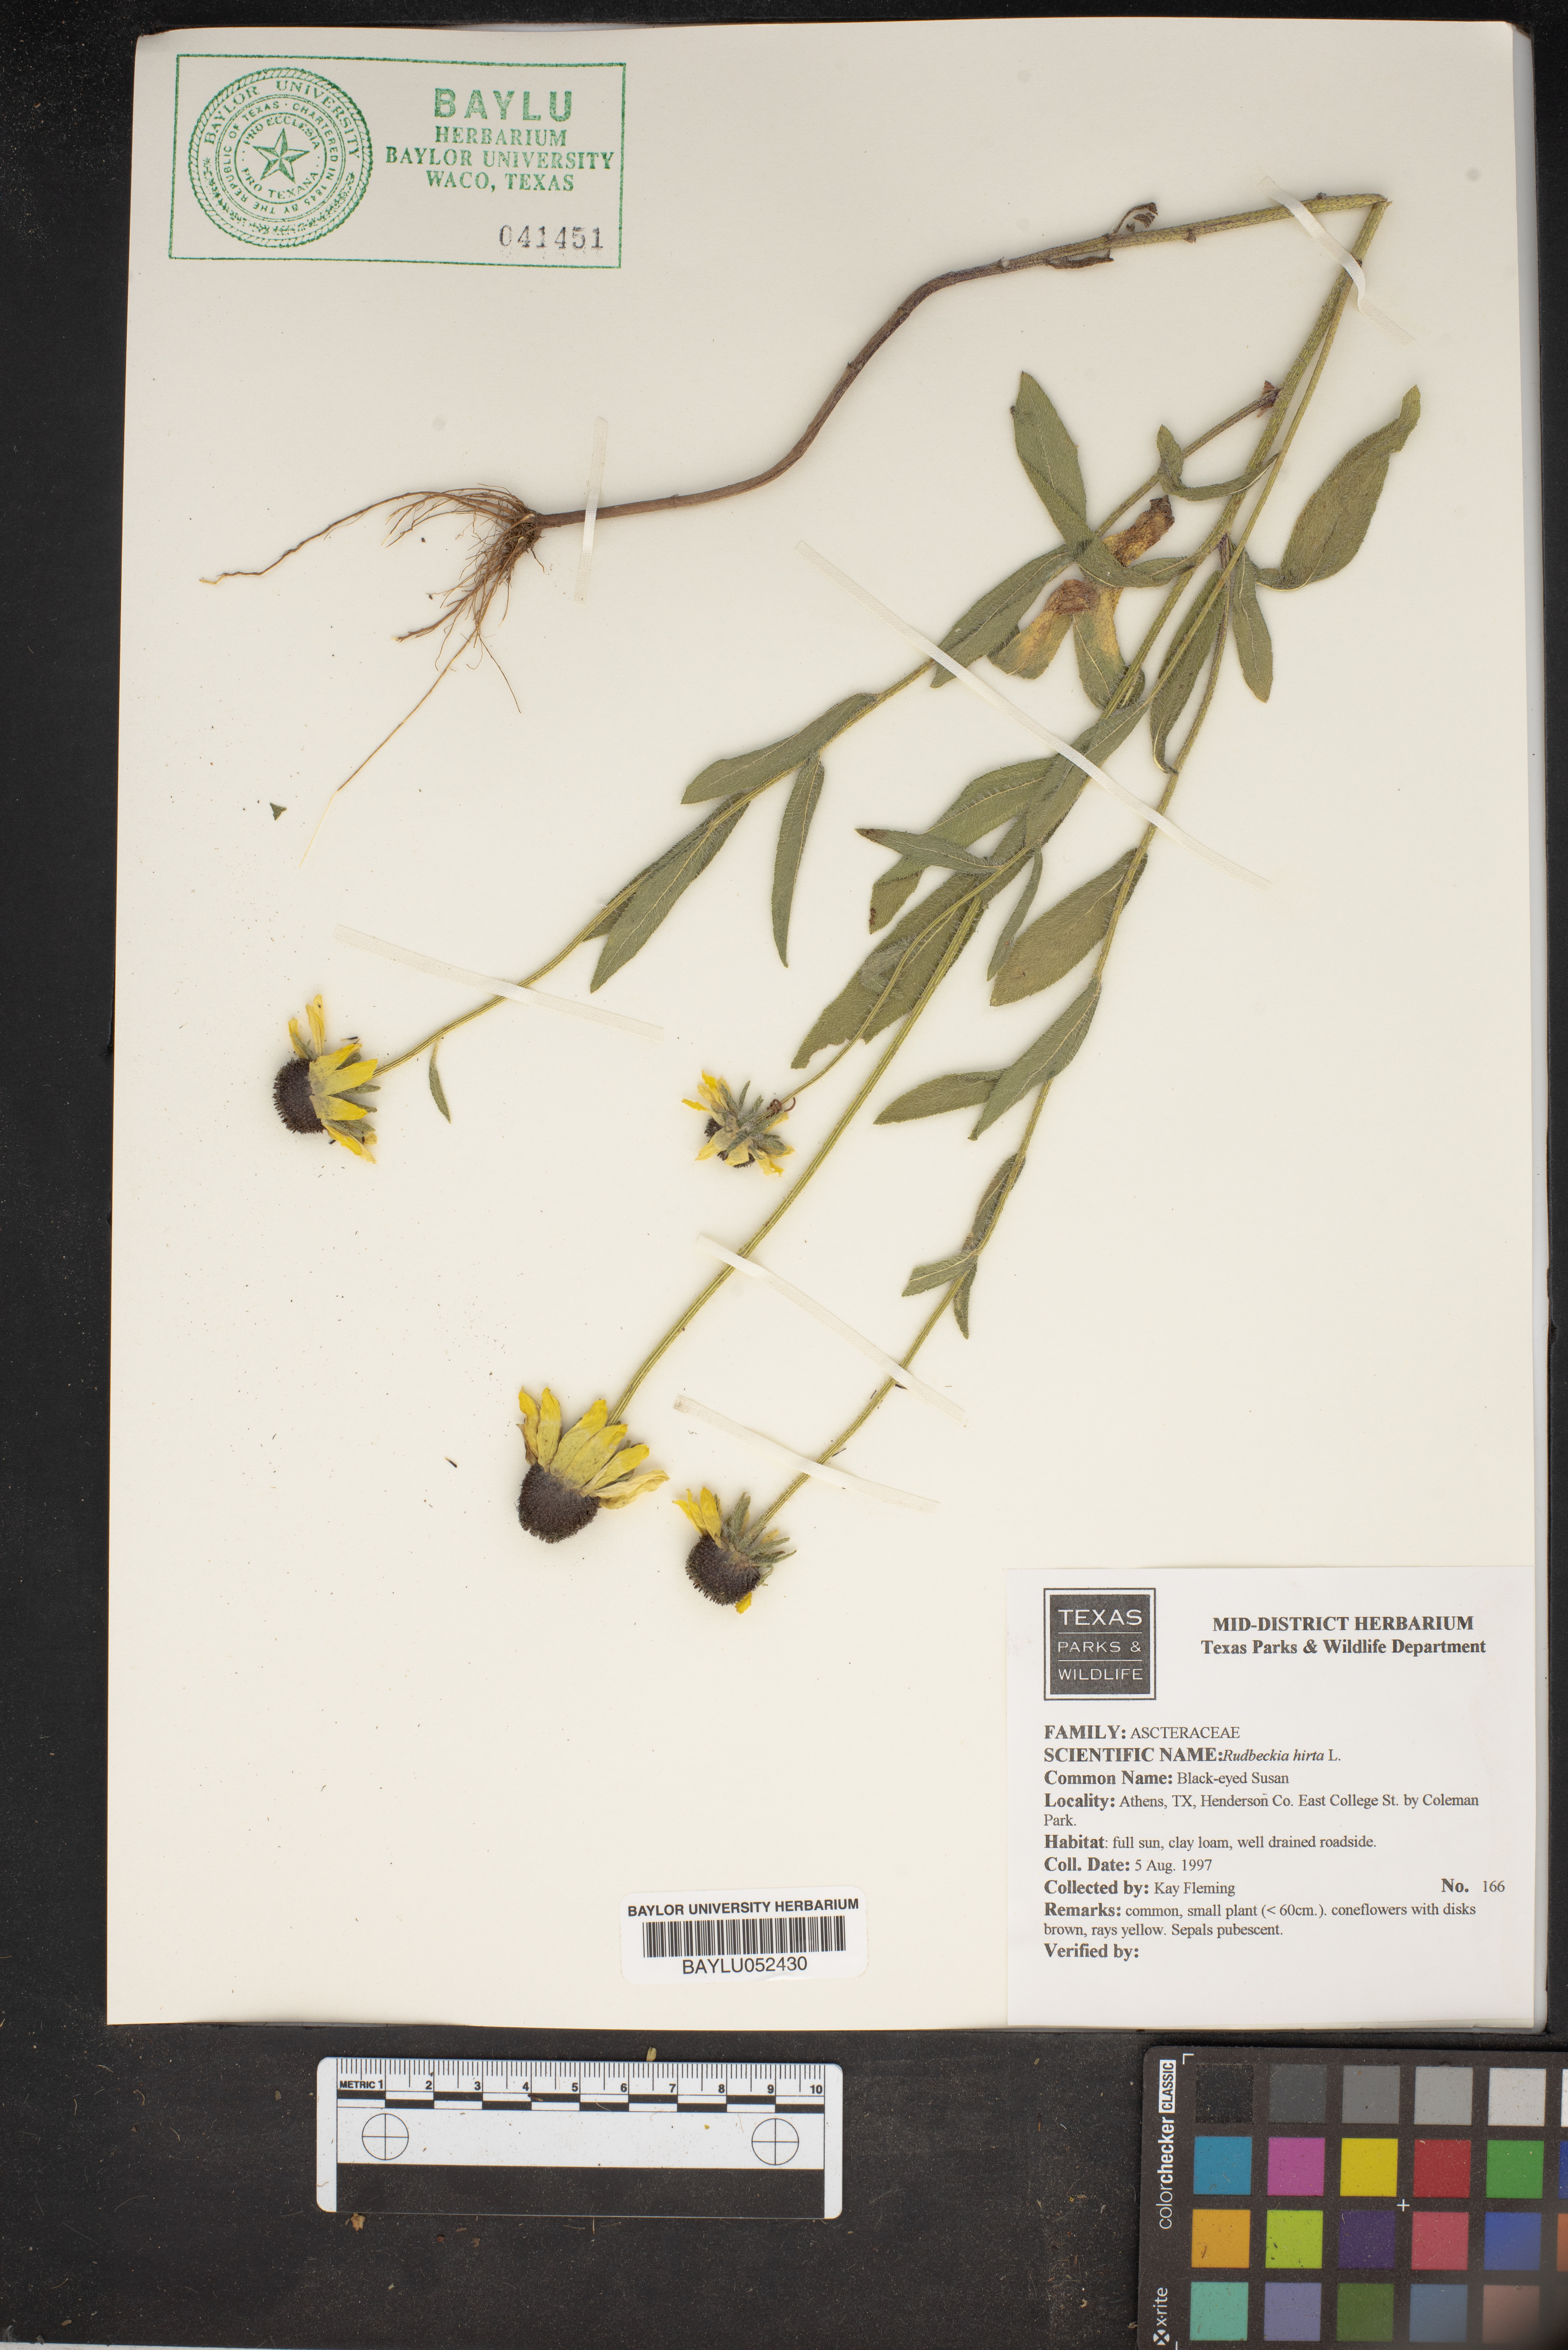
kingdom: Plantae
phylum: Tracheophyta
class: Magnoliopsida
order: Asterales
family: Asteraceae
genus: Rudbeckia
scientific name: Rudbeckia hirta
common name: Black-eyed-susan
